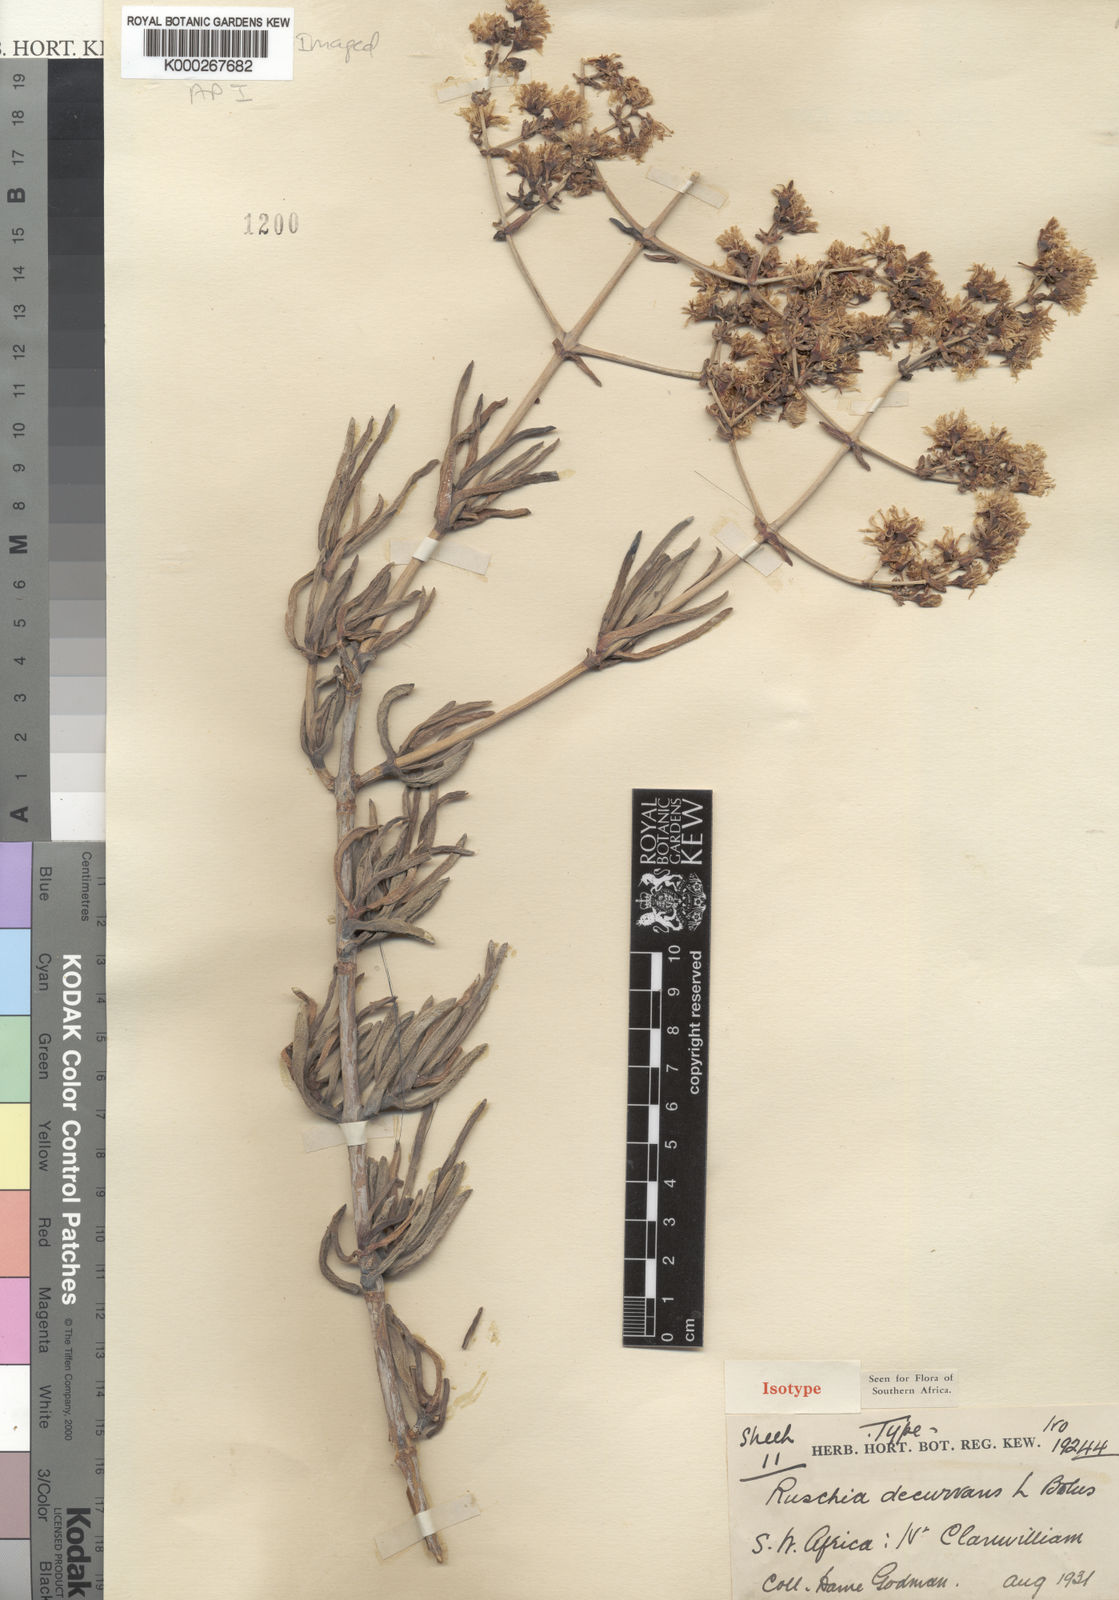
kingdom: Plantae
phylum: Tracheophyta
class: Magnoliopsida
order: Caryophyllales
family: Aizoaceae
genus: Ruschia
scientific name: Ruschia decurvans
